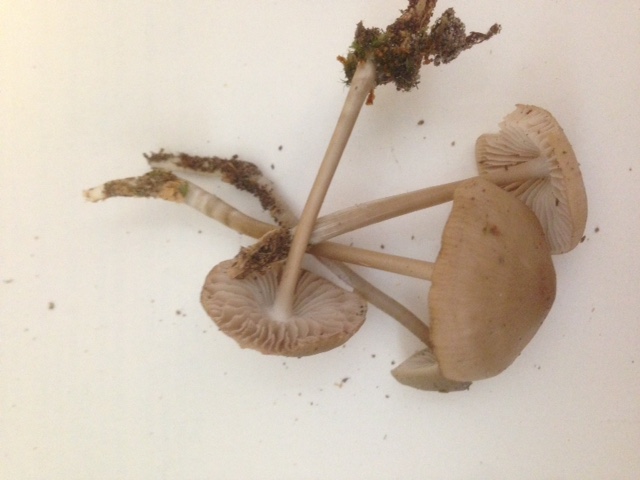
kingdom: Fungi
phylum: Basidiomycota
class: Agaricomycetes
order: Agaricales
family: Mycenaceae
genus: Mycena
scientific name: Mycena galericulata
